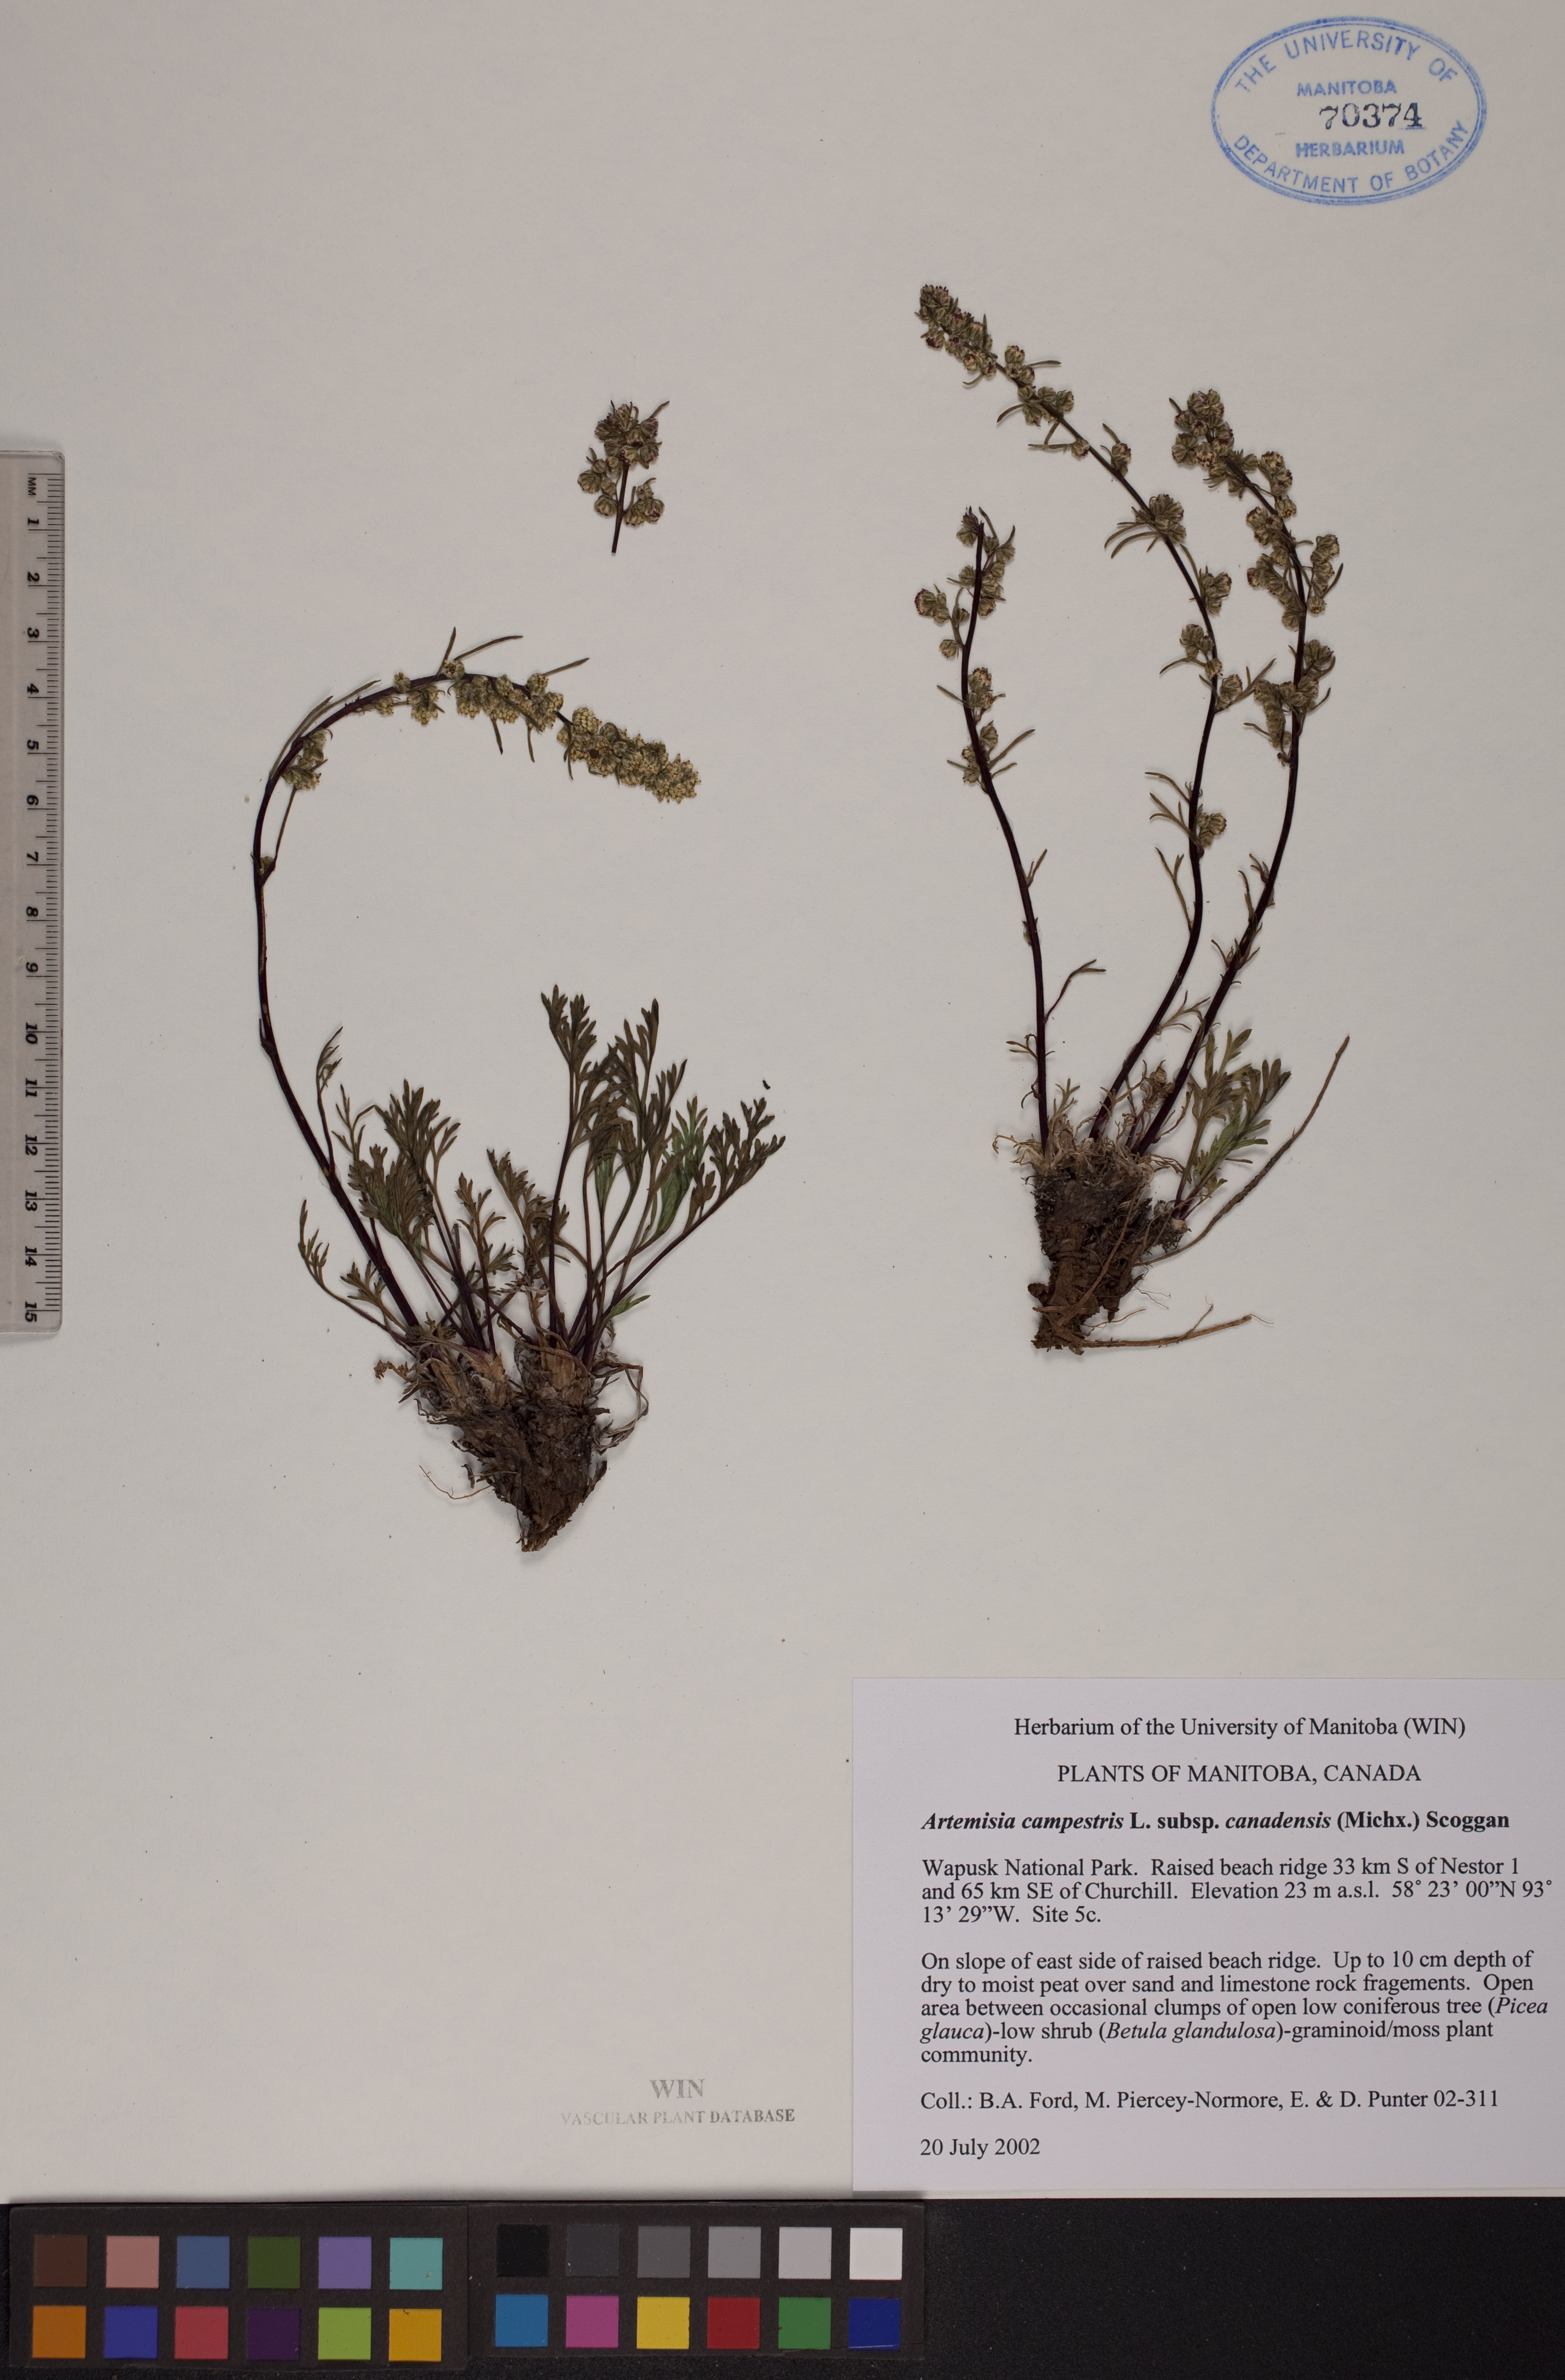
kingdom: Plantae
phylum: Tracheophyta
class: Magnoliopsida
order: Asterales
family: Asteraceae
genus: Artemisia
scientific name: Artemisia campestris
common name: Field wormwood
